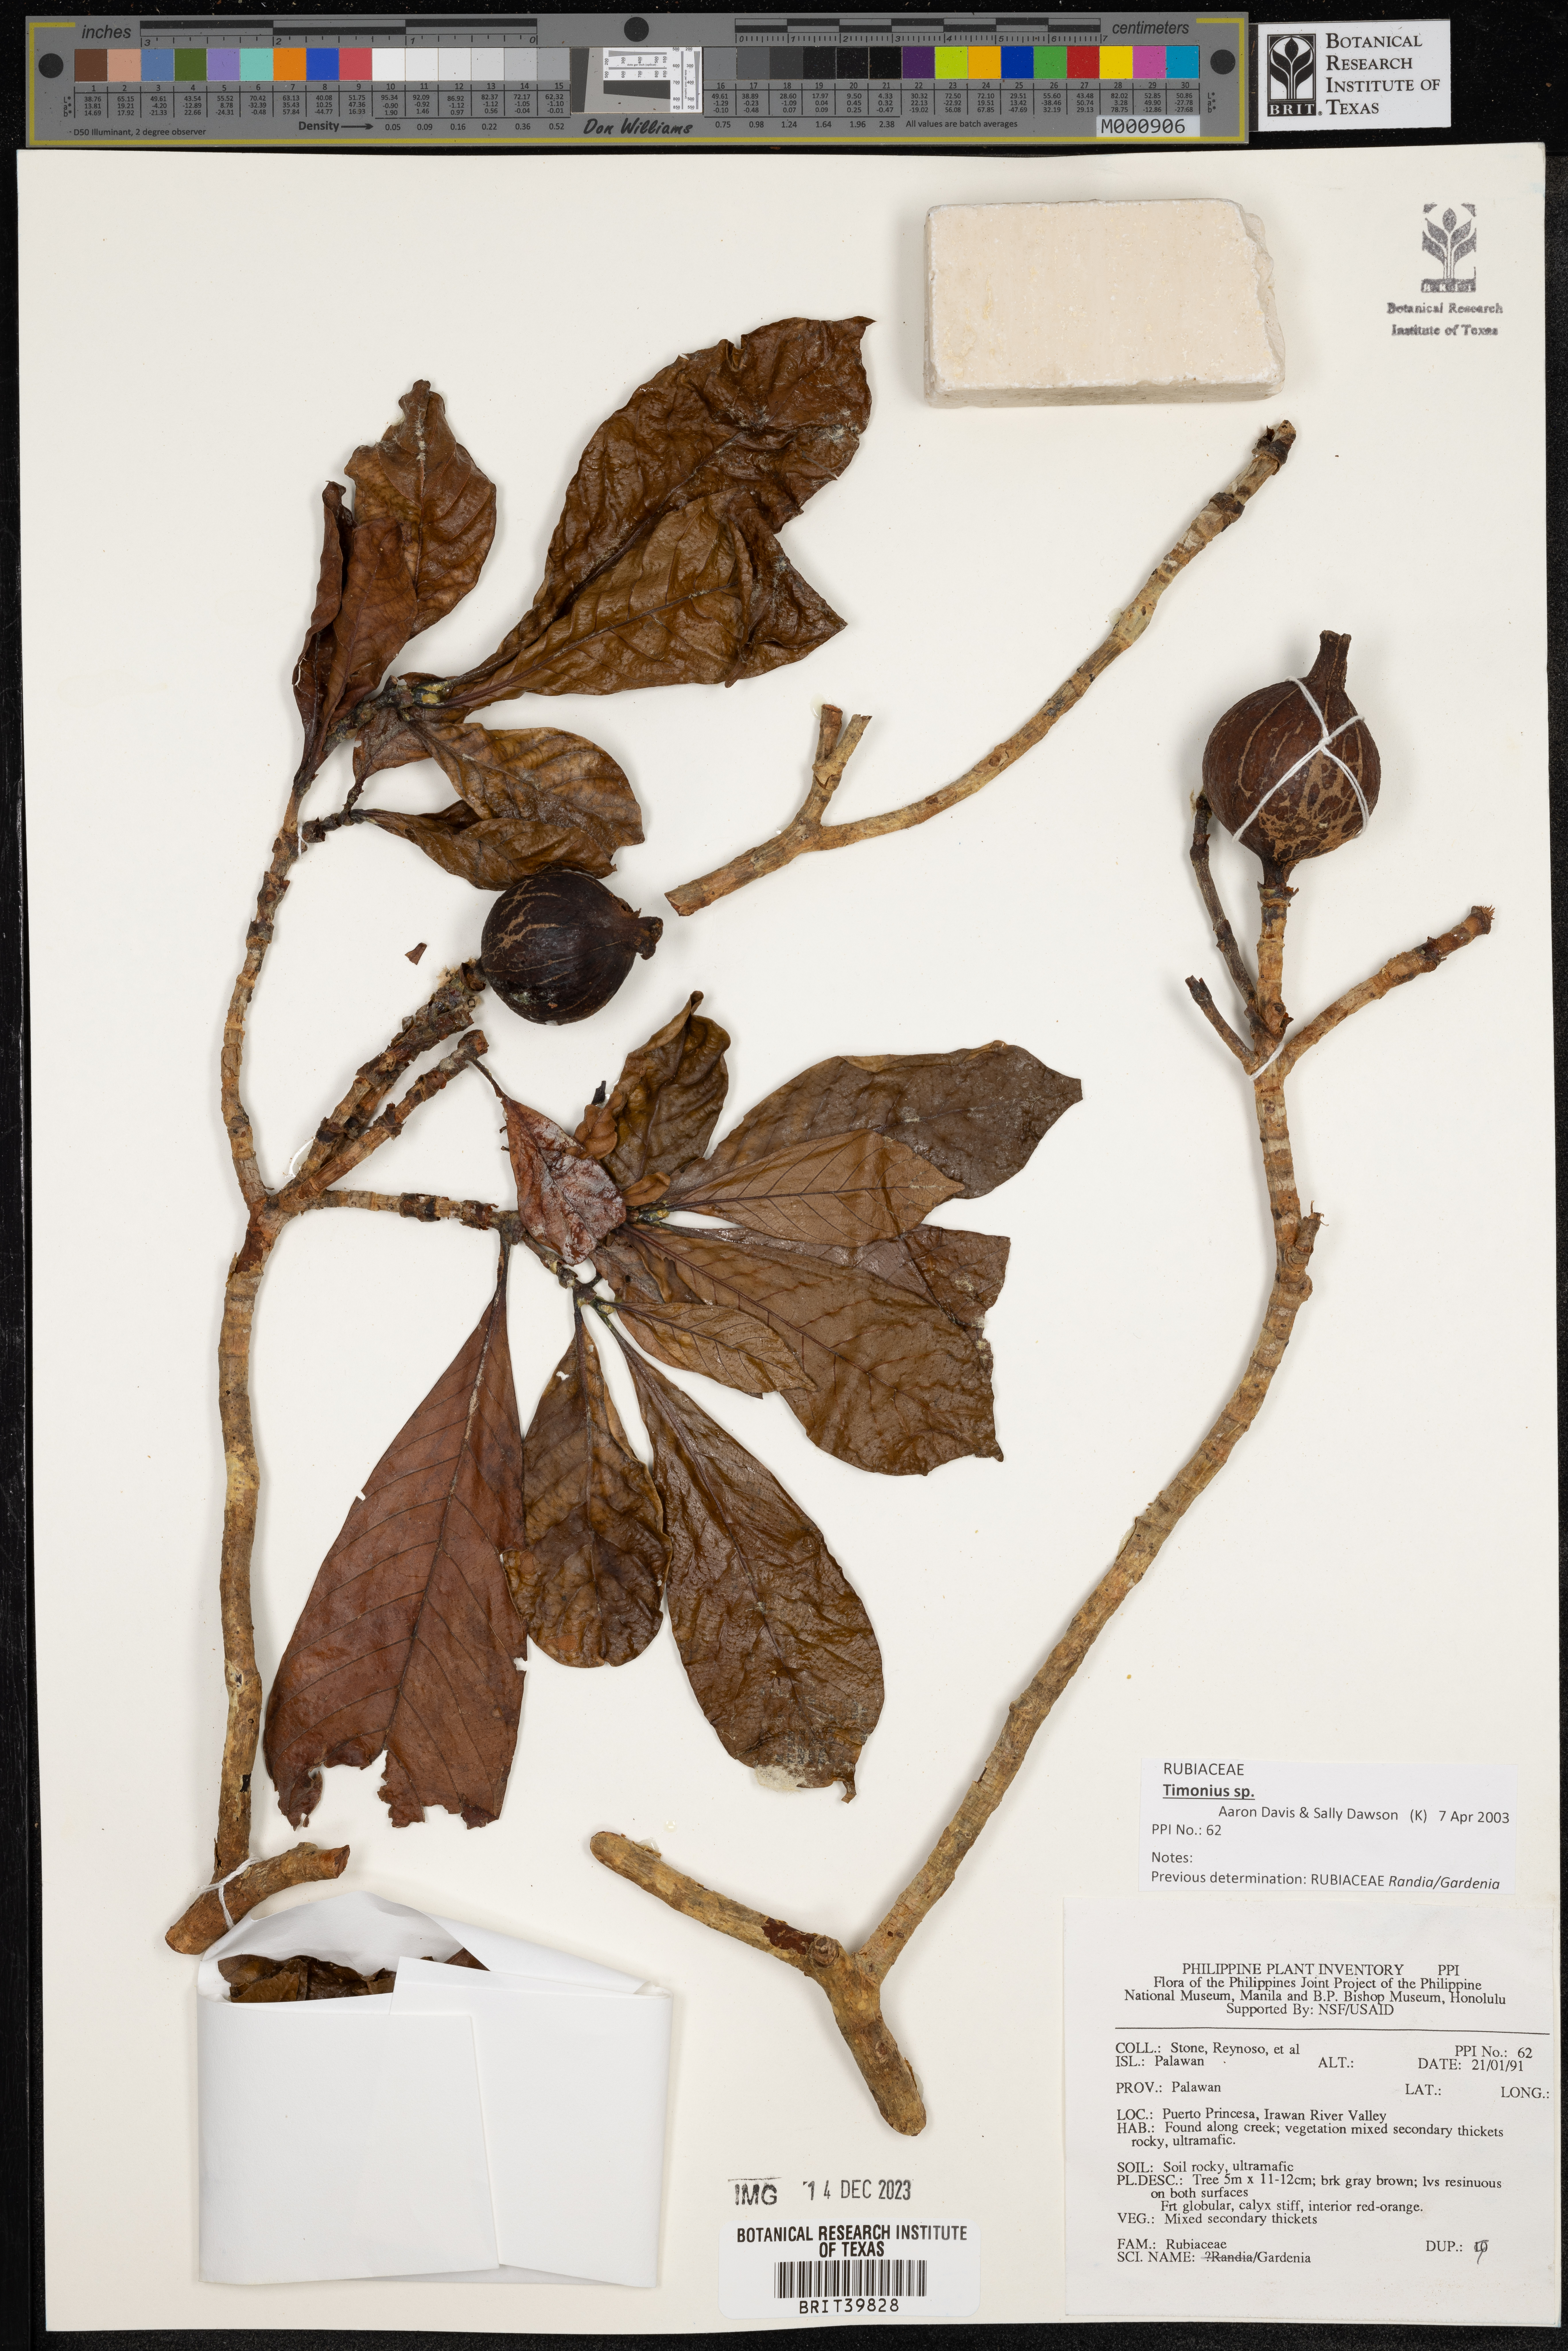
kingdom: Plantae
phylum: Tracheophyta
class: Magnoliopsida
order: Gentianales
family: Rubiaceae
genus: Gardenia
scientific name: Gardenia
